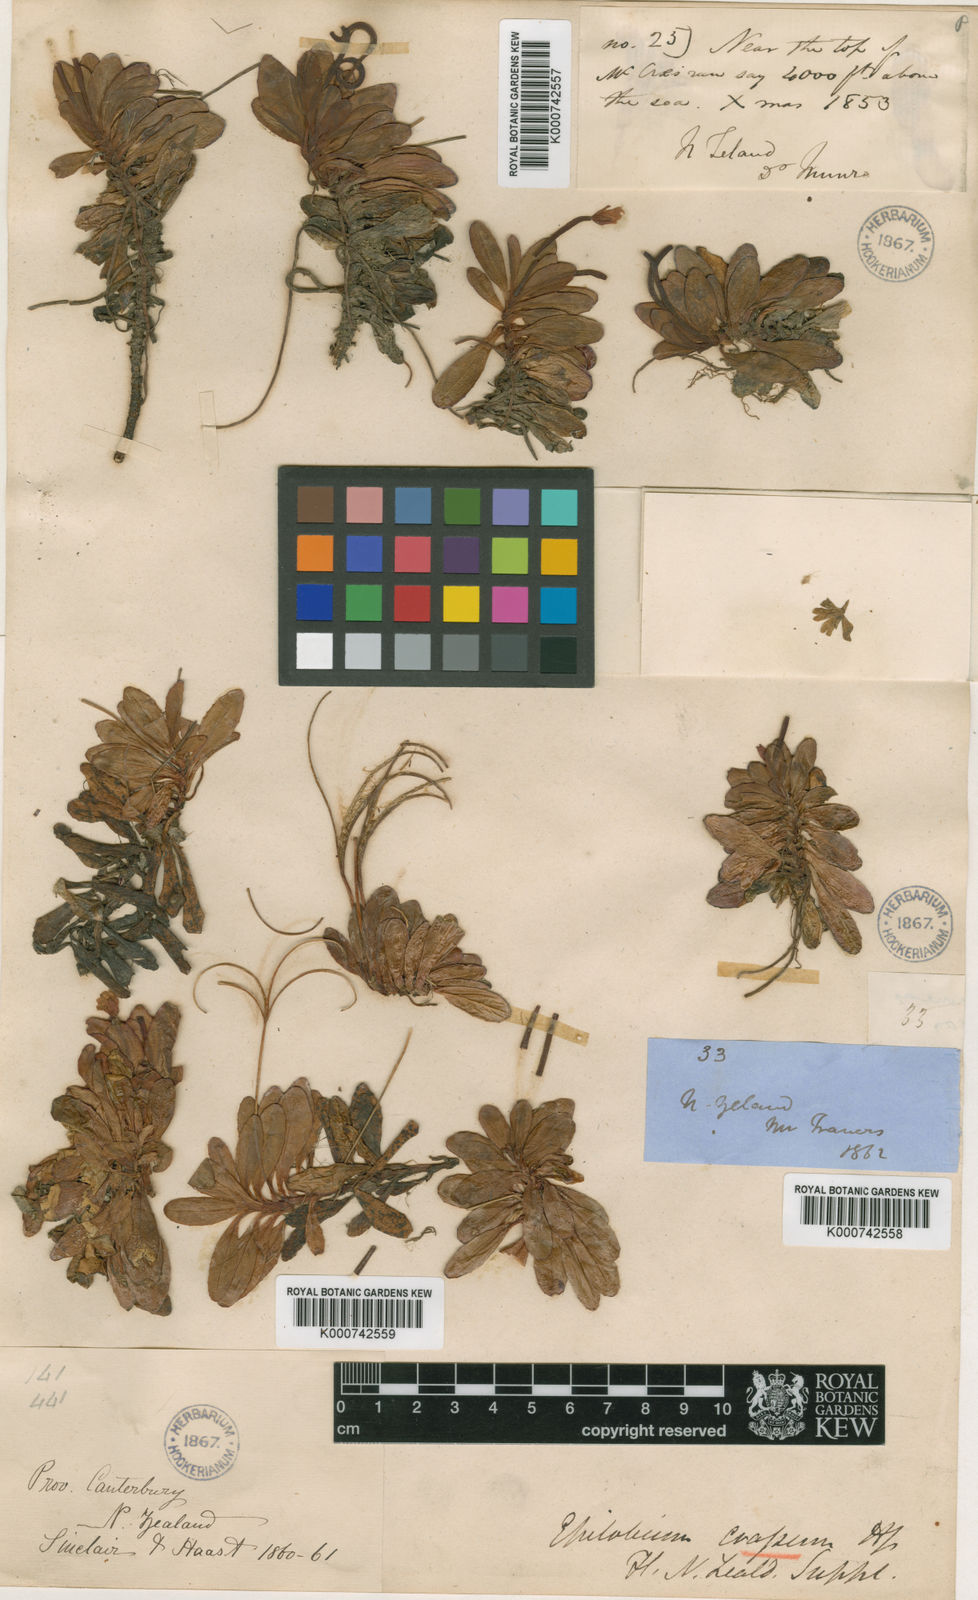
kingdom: Plantae
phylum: Tracheophyta
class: Magnoliopsida
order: Myrtales
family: Onagraceae
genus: Epilobium
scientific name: Epilobium crassum
